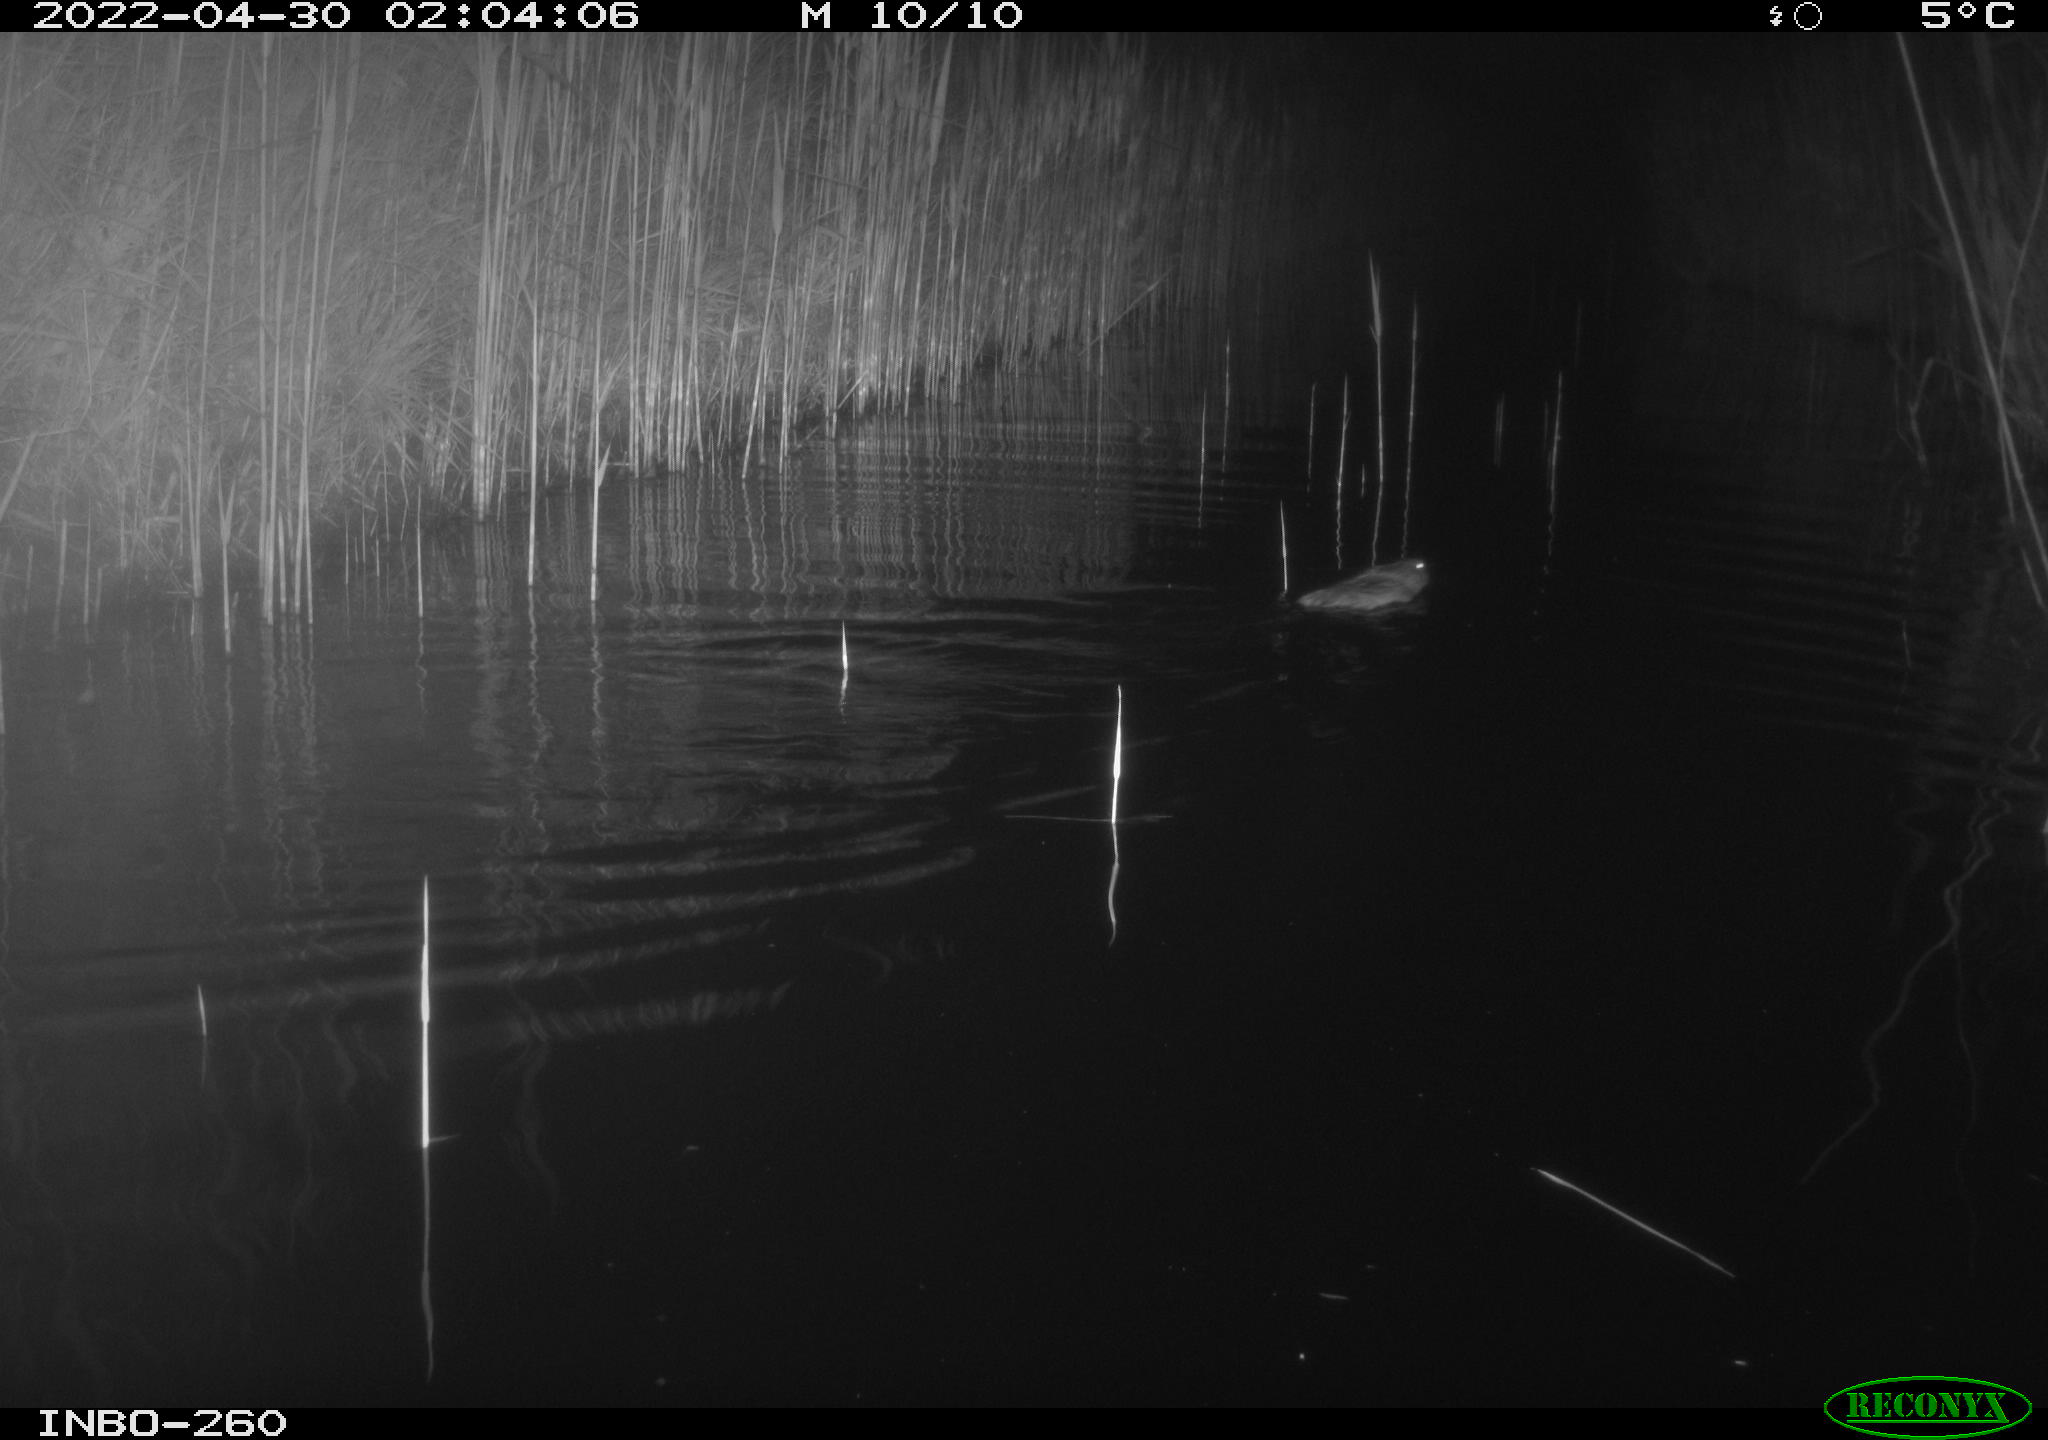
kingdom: Animalia
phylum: Chordata
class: Mammalia
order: Rodentia
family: Cricetidae
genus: Ondatra
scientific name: Ondatra zibethicus
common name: Muskrat
